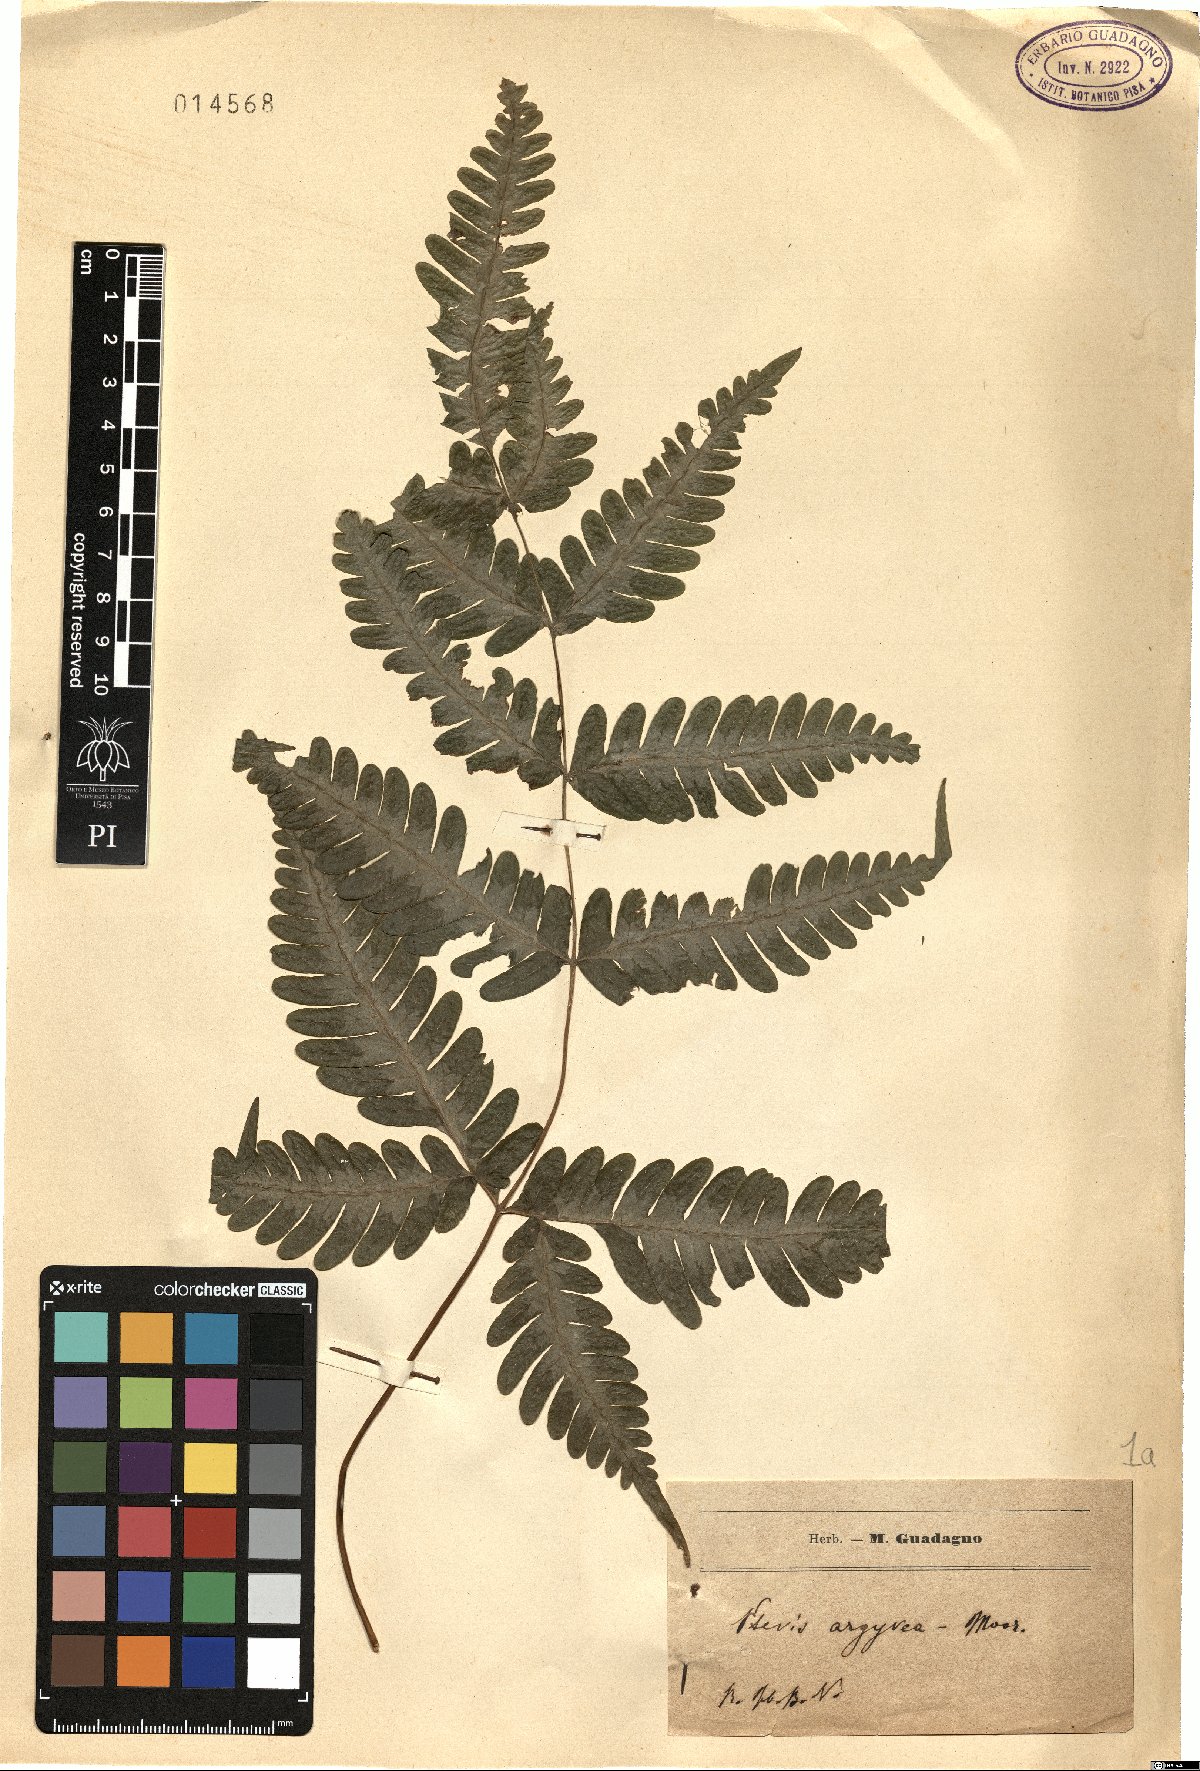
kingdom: Plantae
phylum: Tracheophyta
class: Polypodiopsida
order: Polypodiales
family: Pteridaceae
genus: Pteris
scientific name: Pteris argyraea
